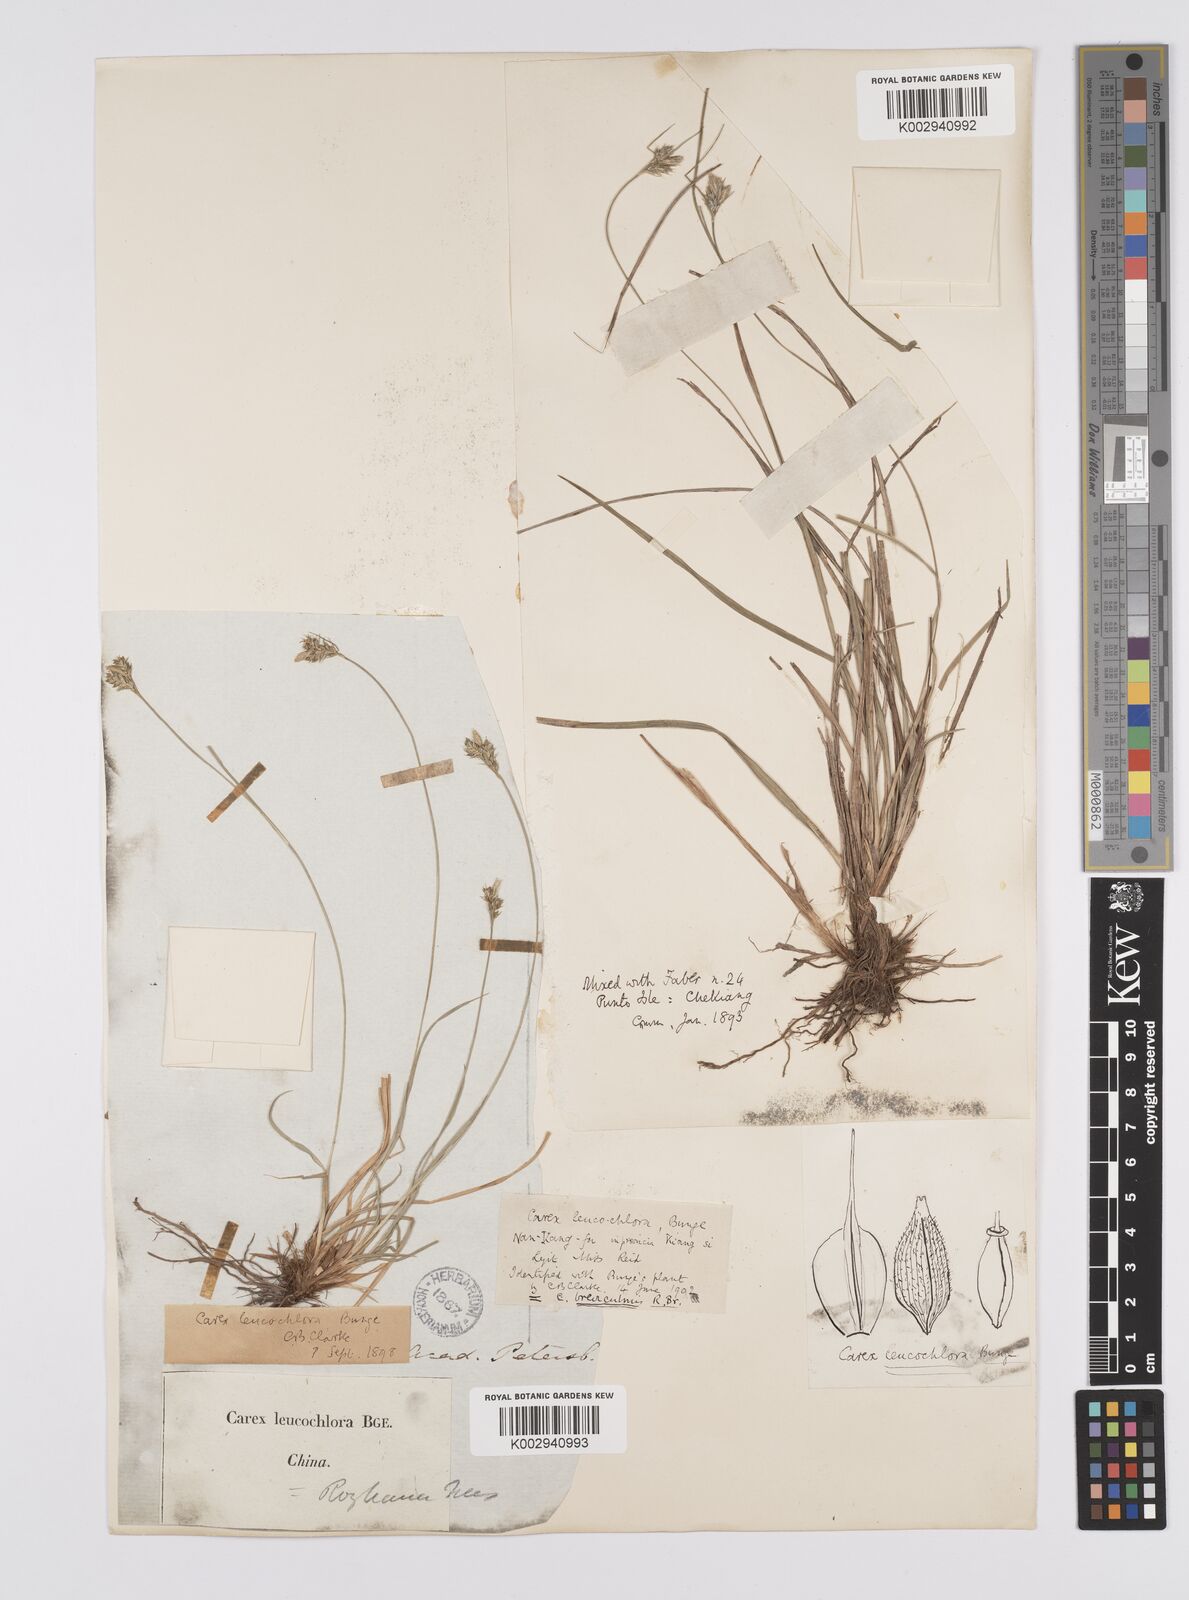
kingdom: Plantae
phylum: Tracheophyta
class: Liliopsida
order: Poales
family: Cyperaceae
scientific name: Cyperaceae
